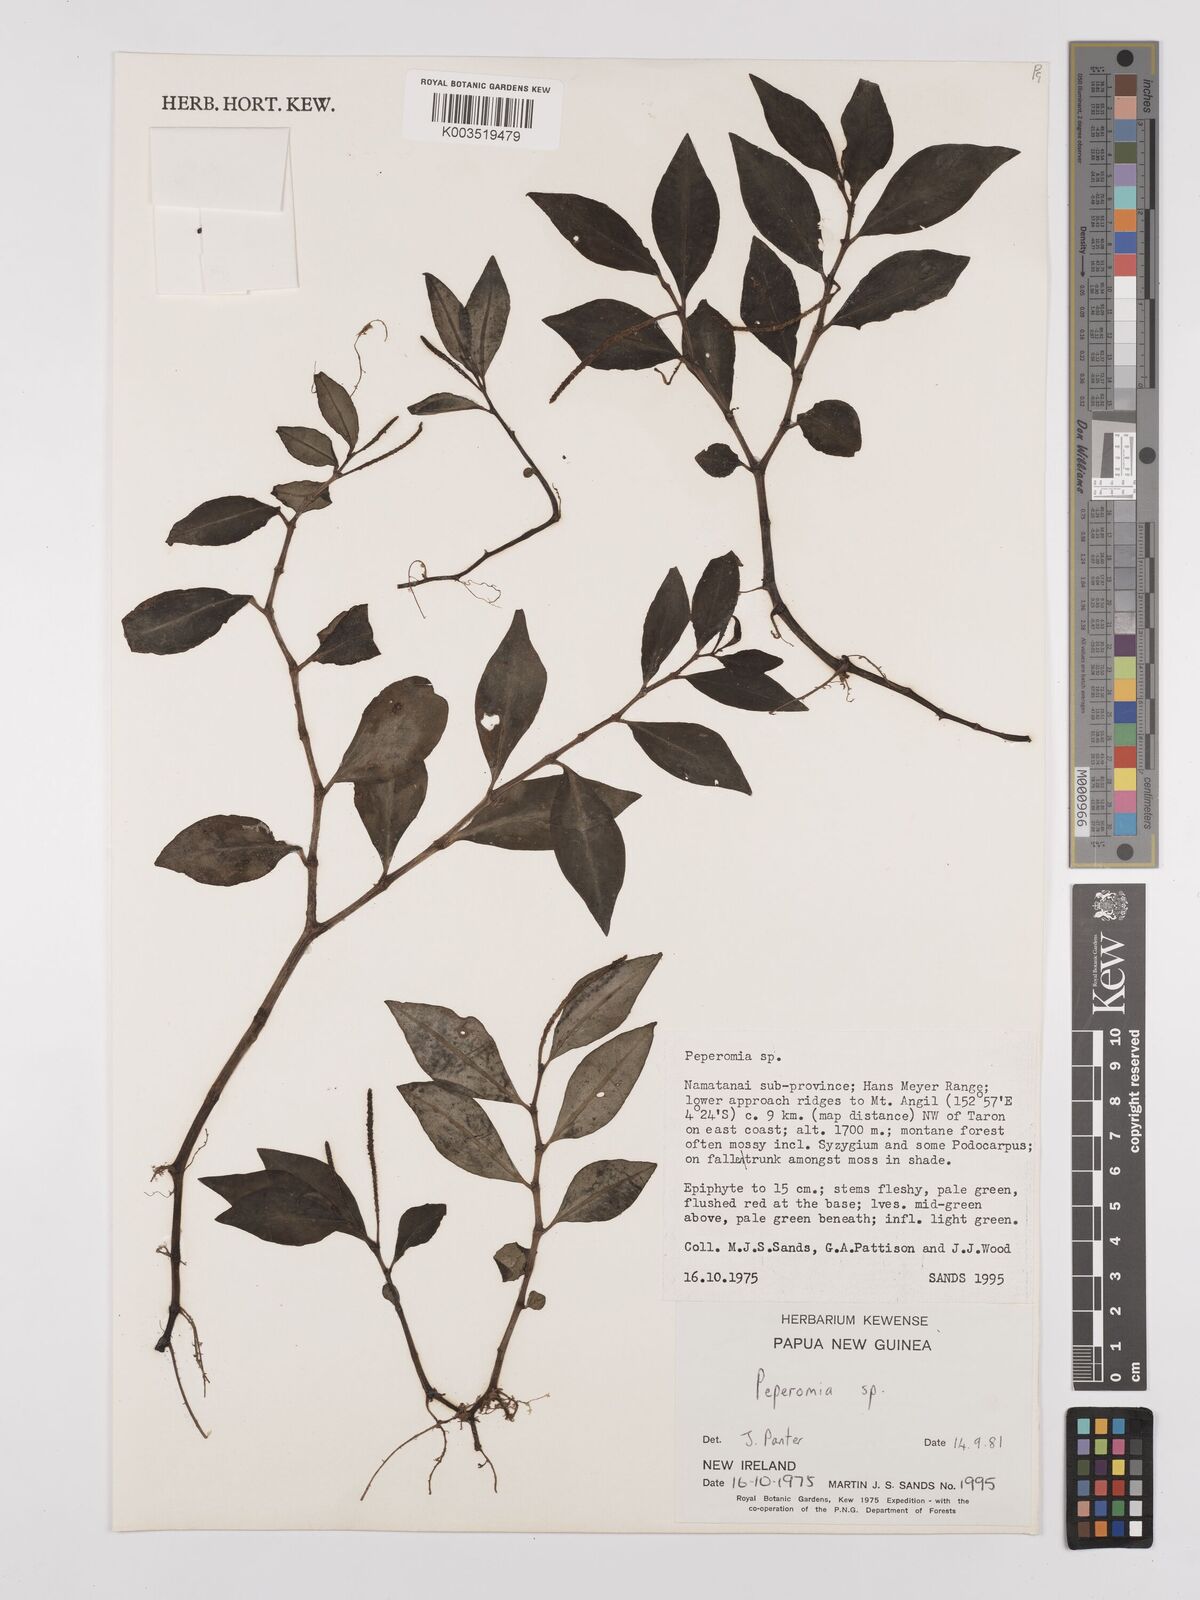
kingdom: Plantae
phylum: Tracheophyta
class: Magnoliopsida
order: Piperales
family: Piperaceae
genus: Peperomia
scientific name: Peperomia
